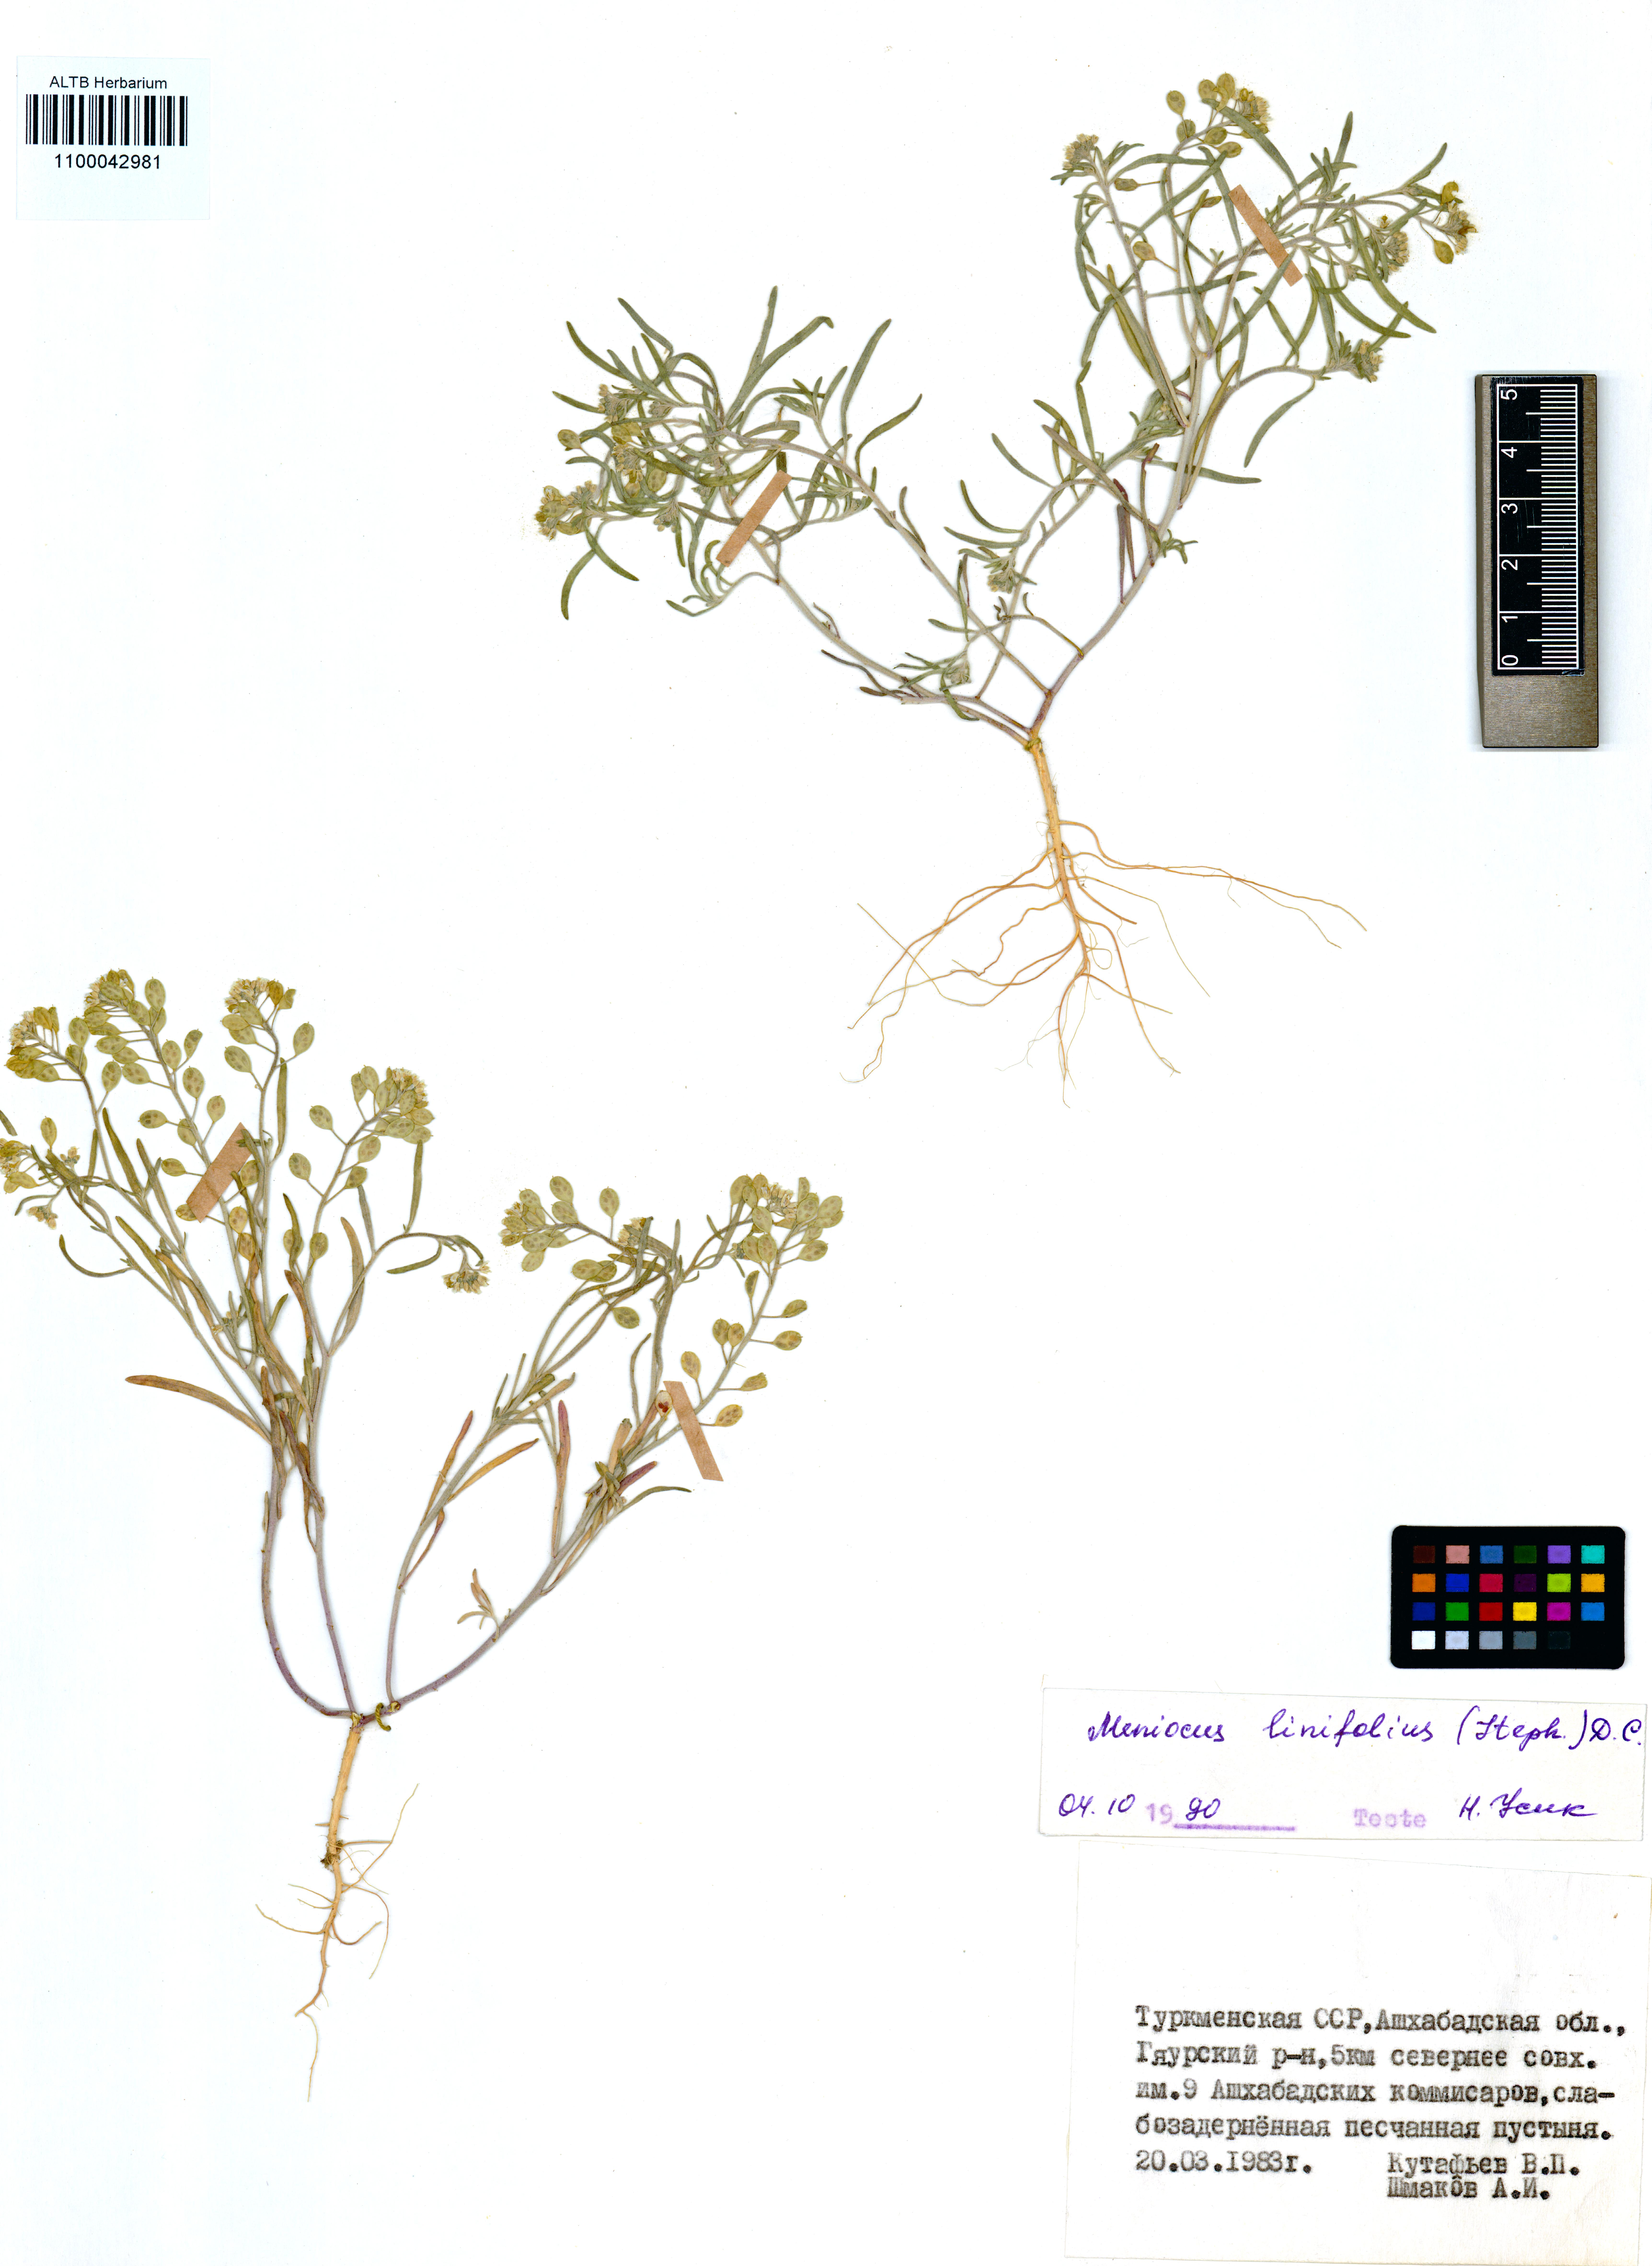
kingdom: Plantae
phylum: Tracheophyta
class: Magnoliopsida
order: Brassicales
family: Brassicaceae
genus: Meniocus
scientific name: Meniocus linifolius
